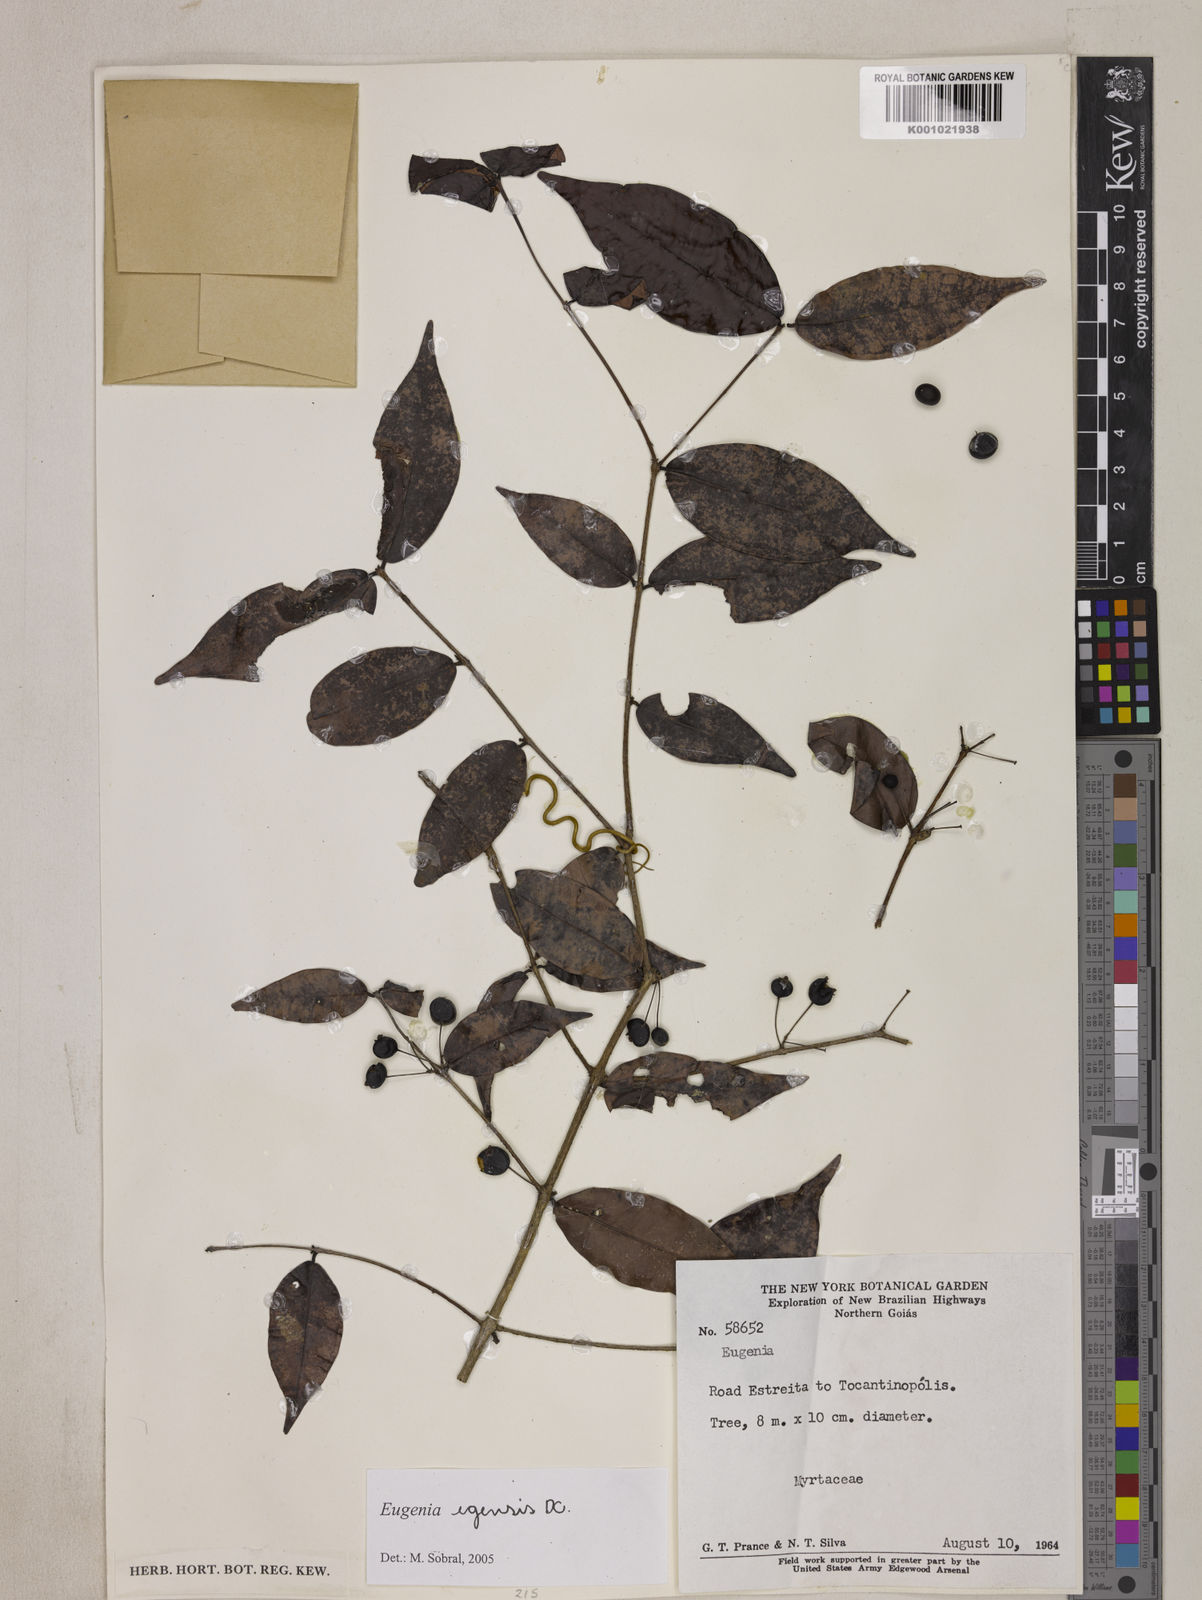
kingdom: Plantae
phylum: Tracheophyta
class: Magnoliopsida
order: Myrtales
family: Myrtaceae
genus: Eugenia
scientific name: Eugenia egensis
